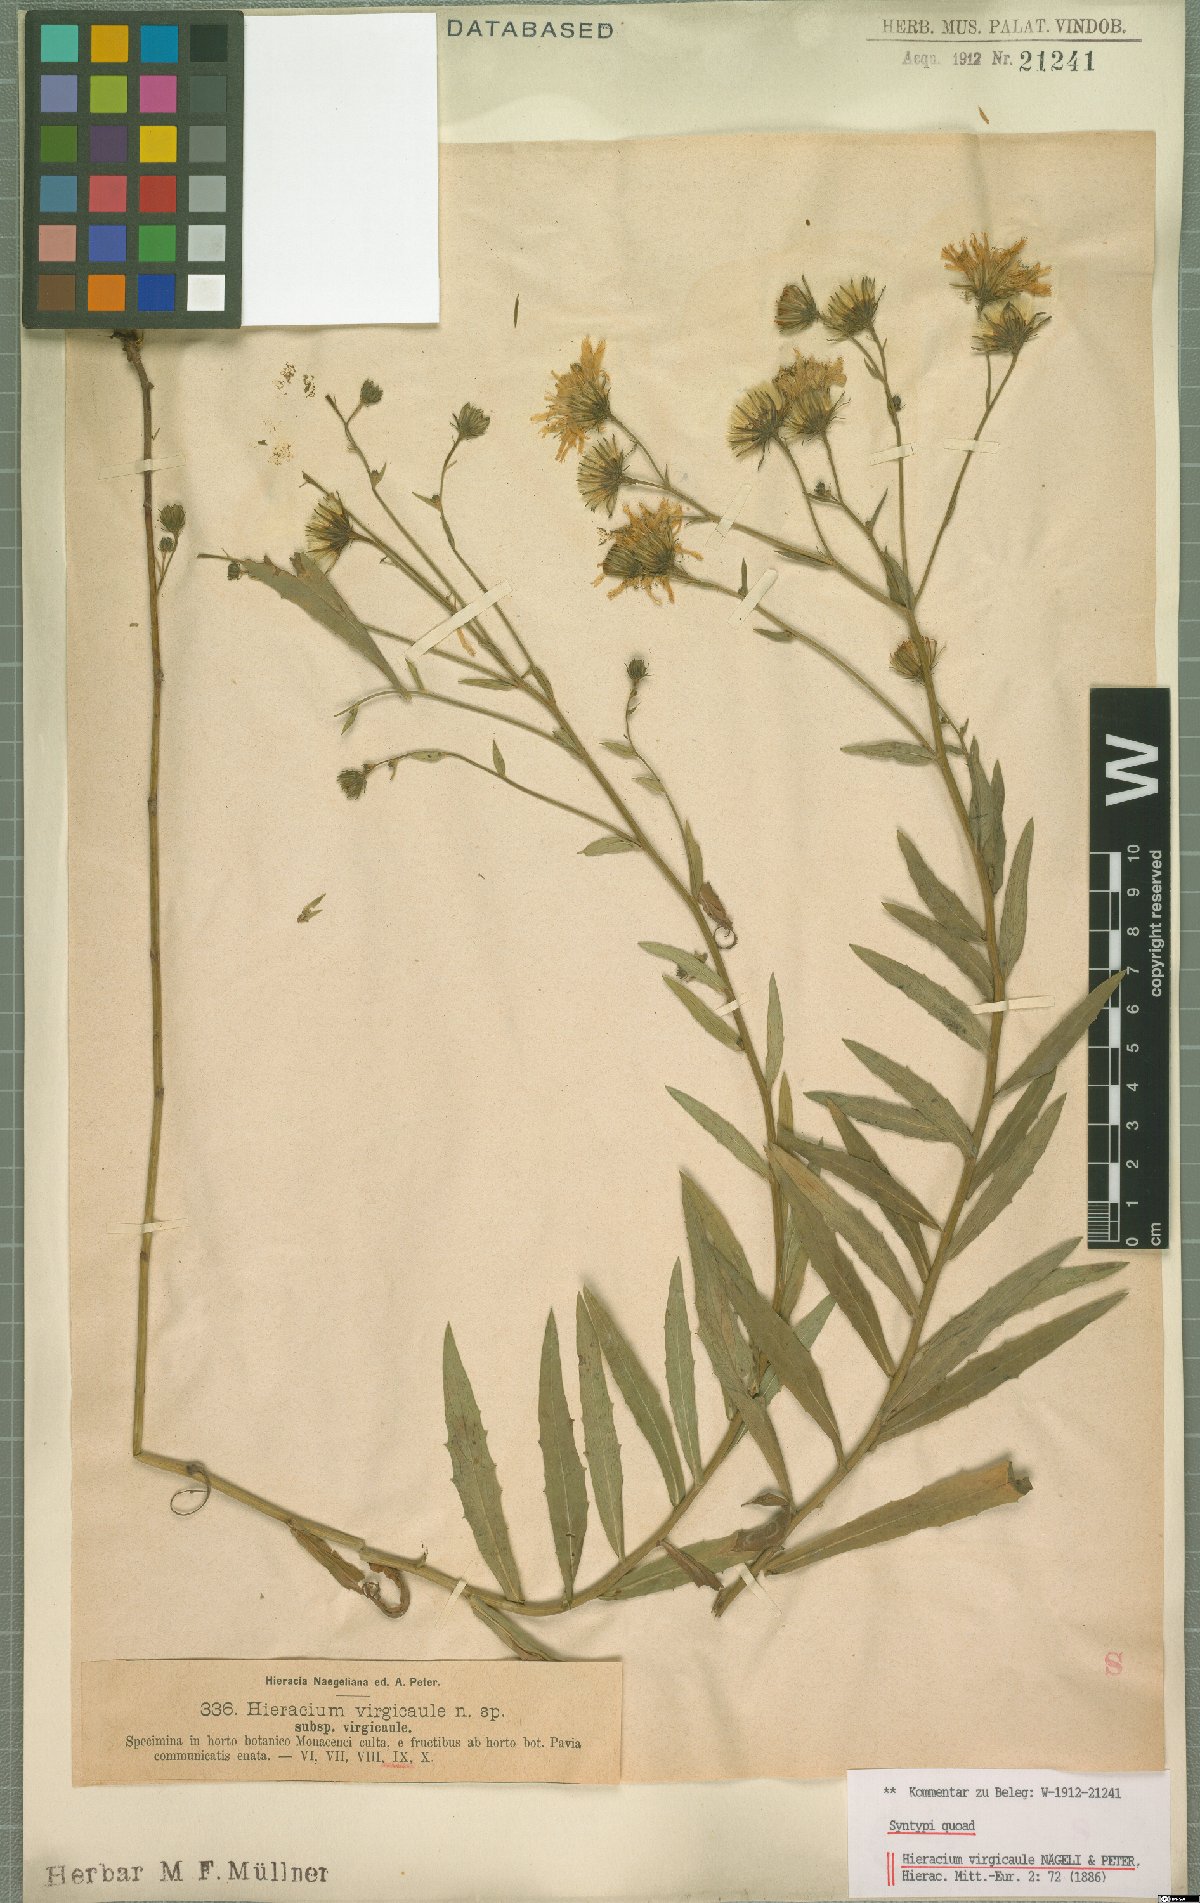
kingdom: Plantae
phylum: Tracheophyta
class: Magnoliopsida
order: Asterales
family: Asteraceae
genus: Hieracium
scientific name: Hieracium virgicaule
